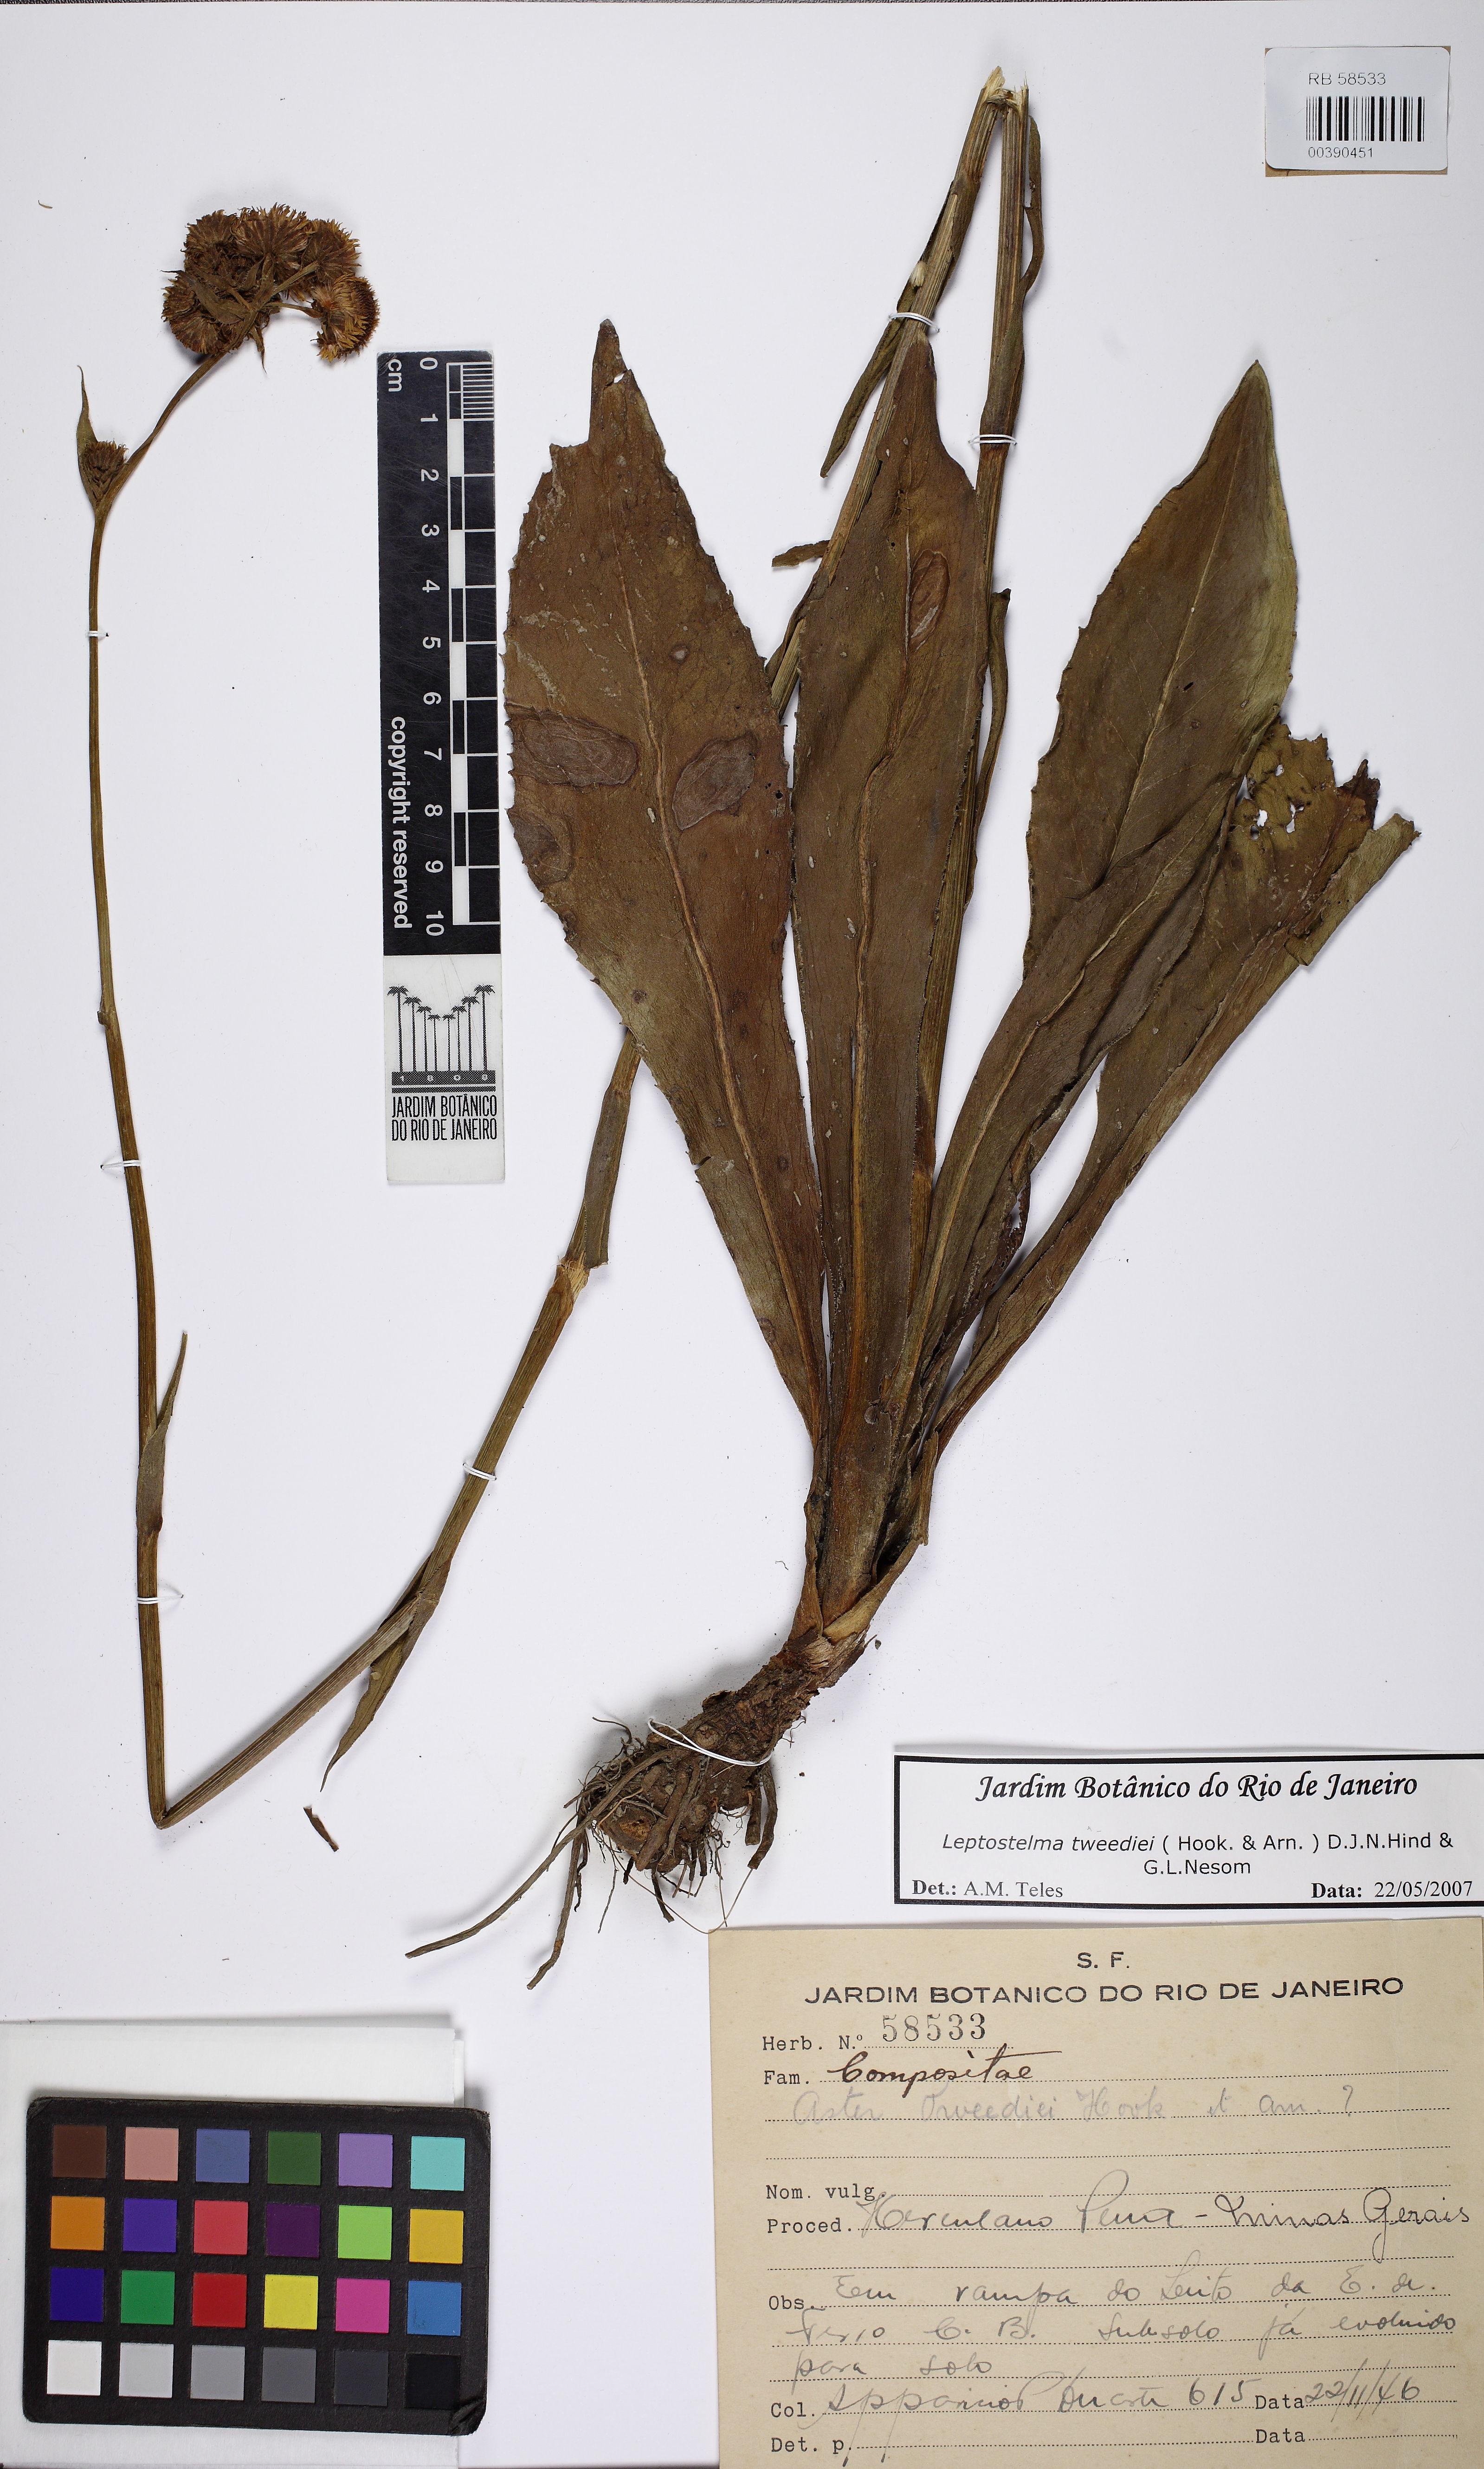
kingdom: Plantae
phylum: Tracheophyta
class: Magnoliopsida
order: Asterales
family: Asteraceae
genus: Leptostelma
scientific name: Leptostelma tweediei
